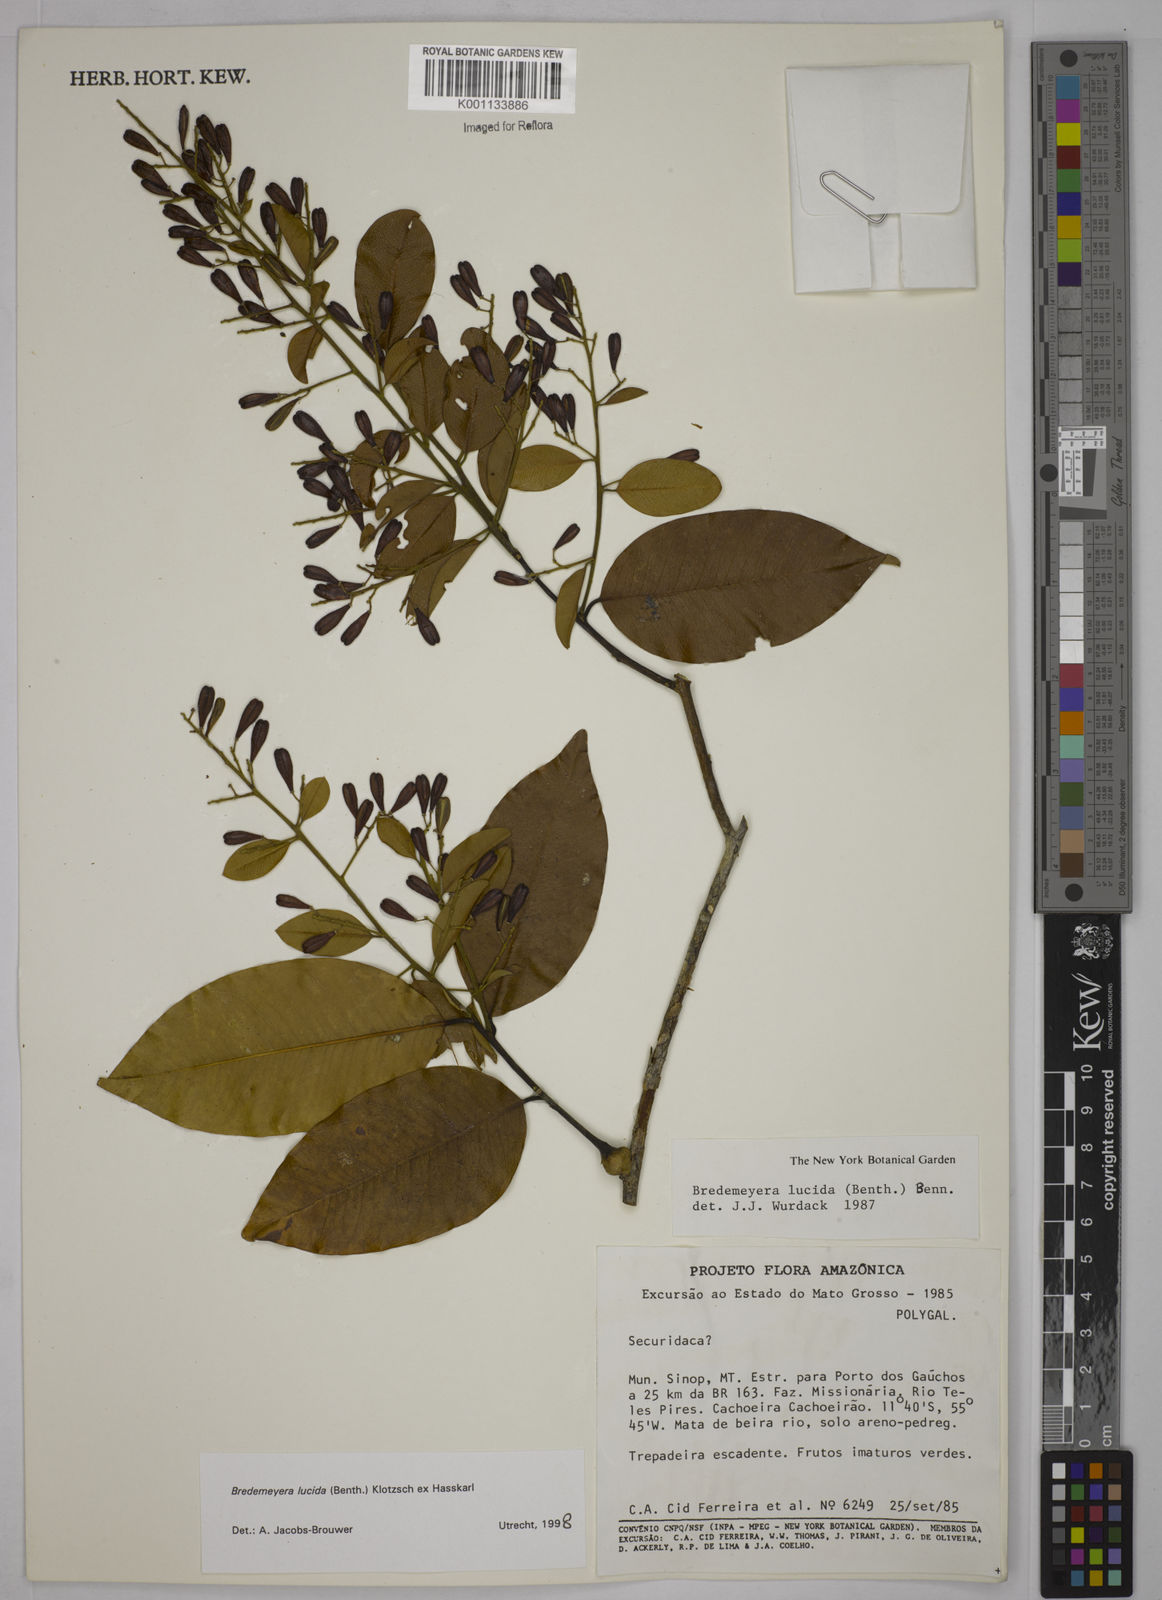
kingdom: Plantae
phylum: Tracheophyta
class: Magnoliopsida
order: Fabales
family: Polygalaceae
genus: Bredemeyera
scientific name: Bredemeyera lucida
